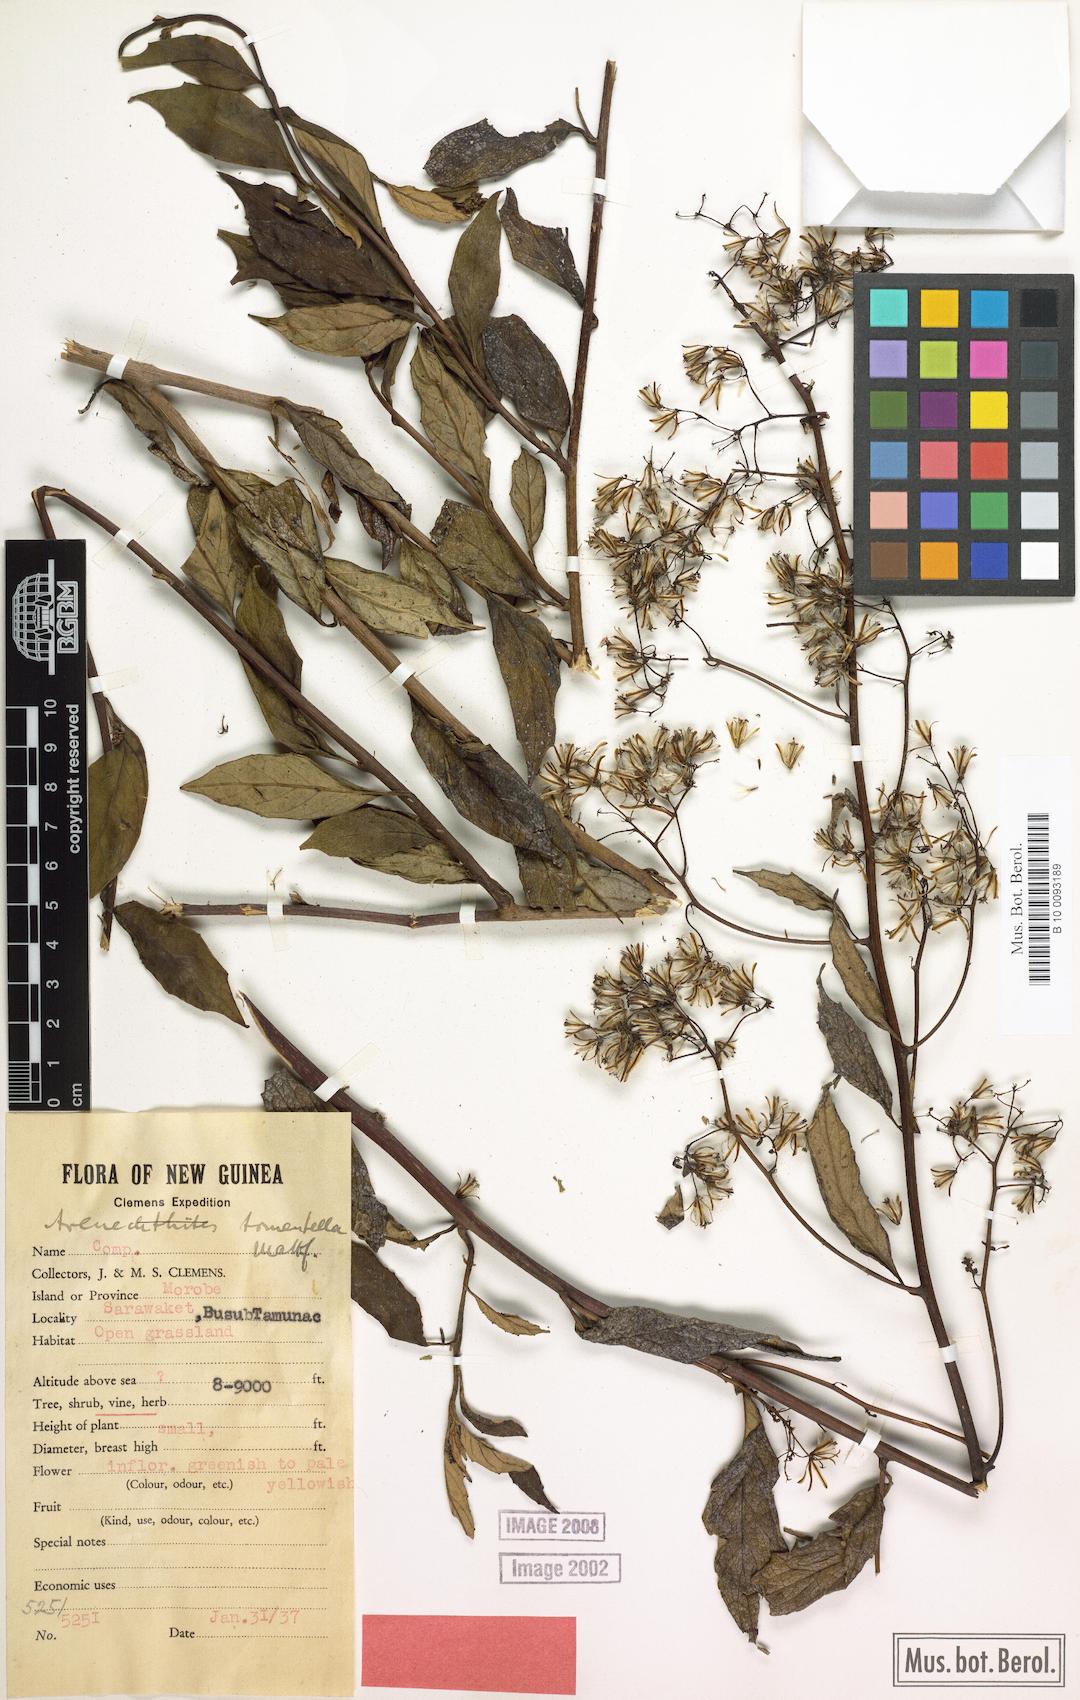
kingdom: Plantae
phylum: Tracheophyta
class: Magnoliopsida
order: Asterales
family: Asteraceae
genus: Arrhenechthites
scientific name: Arrhenechthites tomentellus
